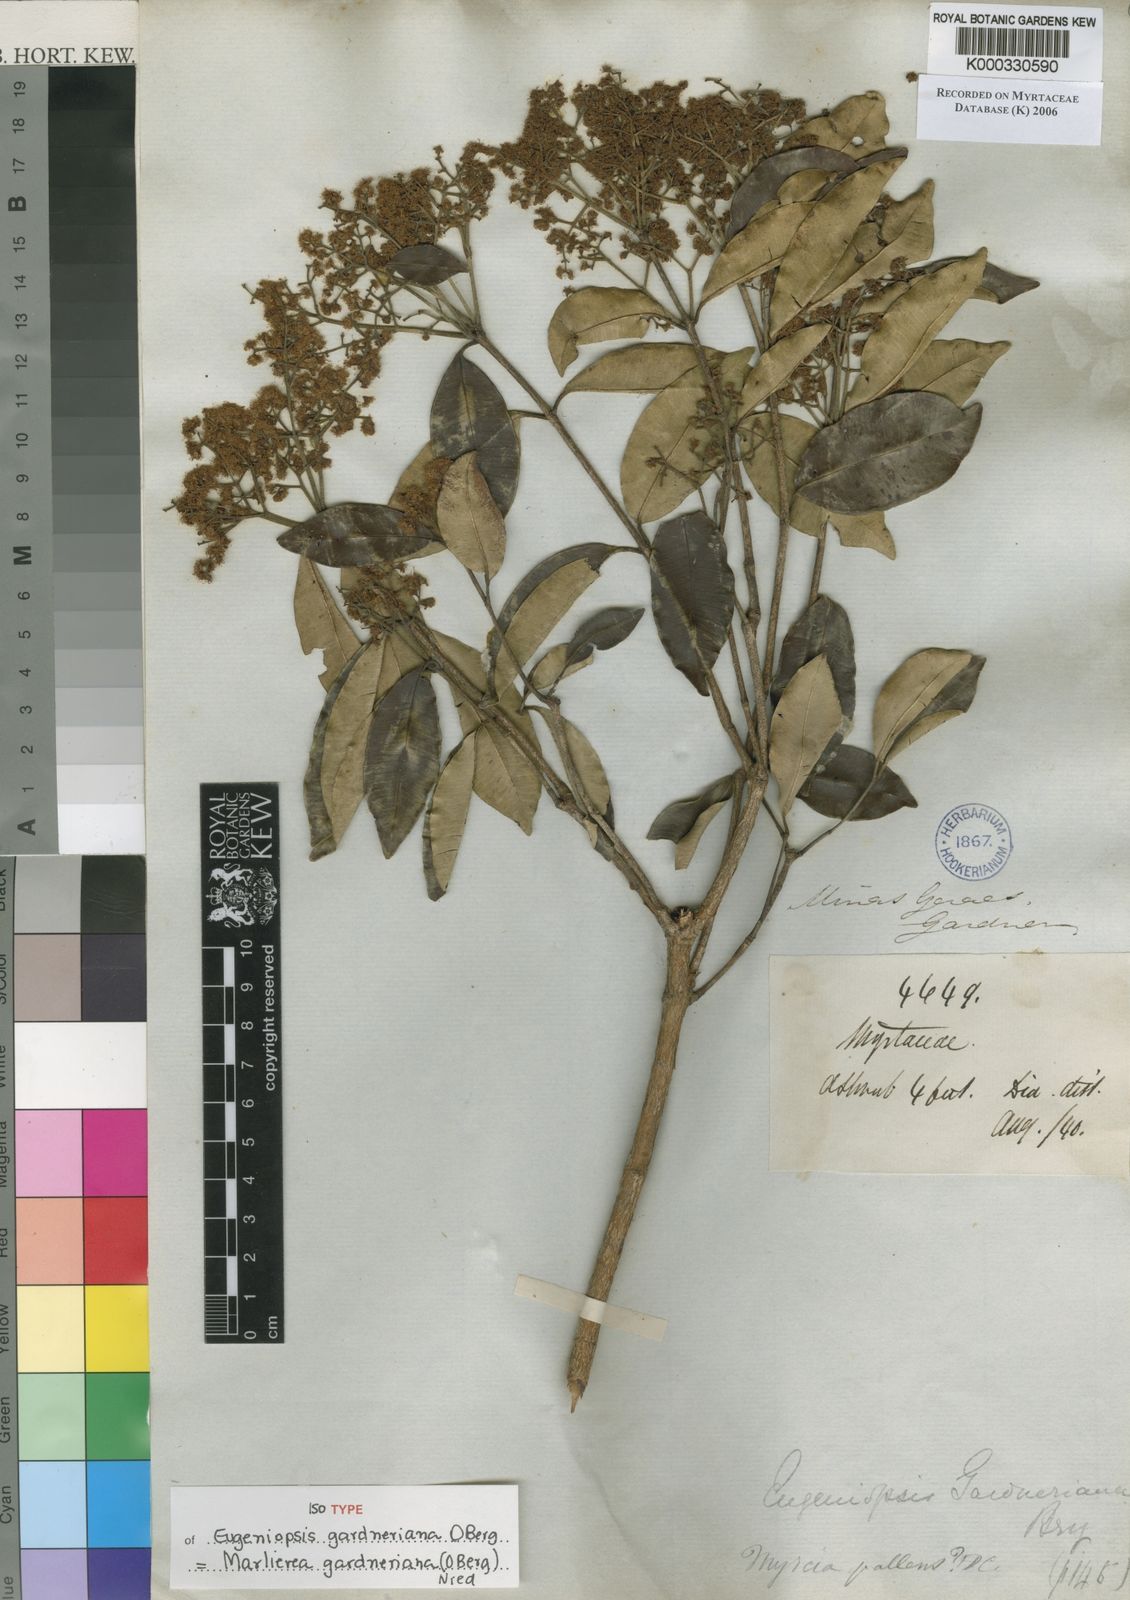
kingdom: Plantae
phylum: Tracheophyta
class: Magnoliopsida
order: Myrtales
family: Myrtaceae
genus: Marlierea
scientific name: Marlierea gardneriana
